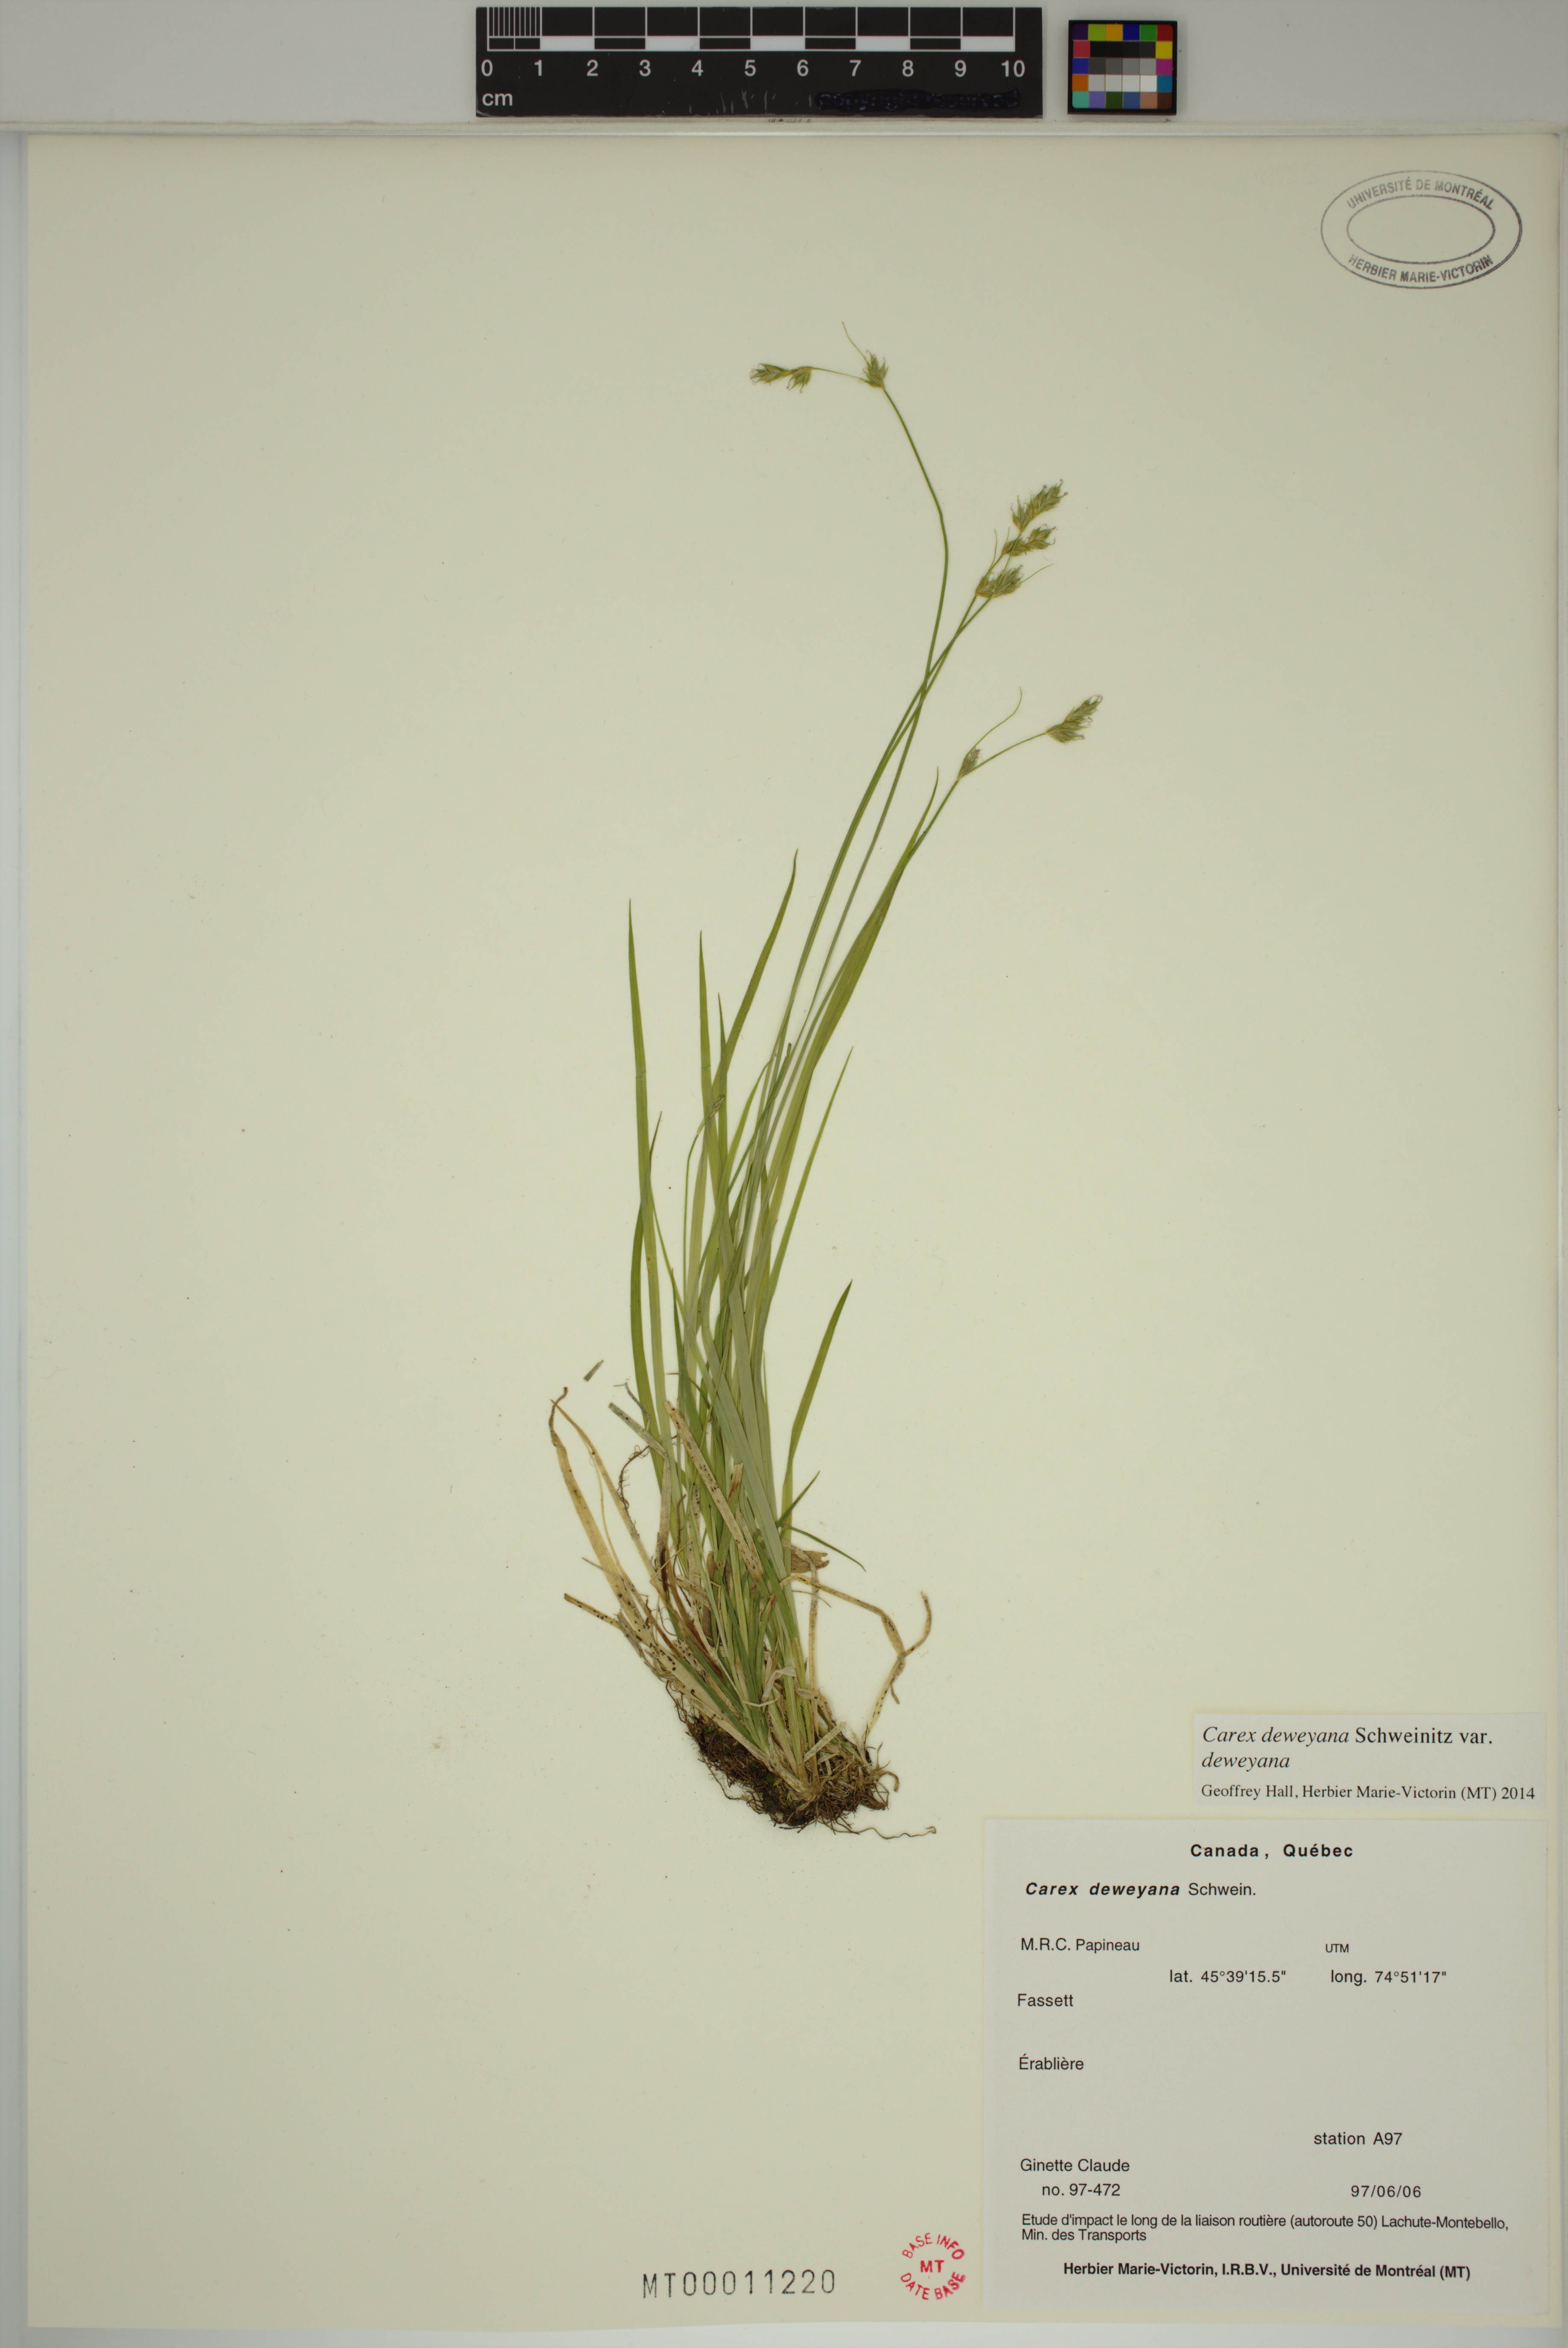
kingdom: Plantae
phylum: Tracheophyta
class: Liliopsida
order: Poales
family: Cyperaceae
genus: Carex
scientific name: Carex deweyana
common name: Dewey's sedge
